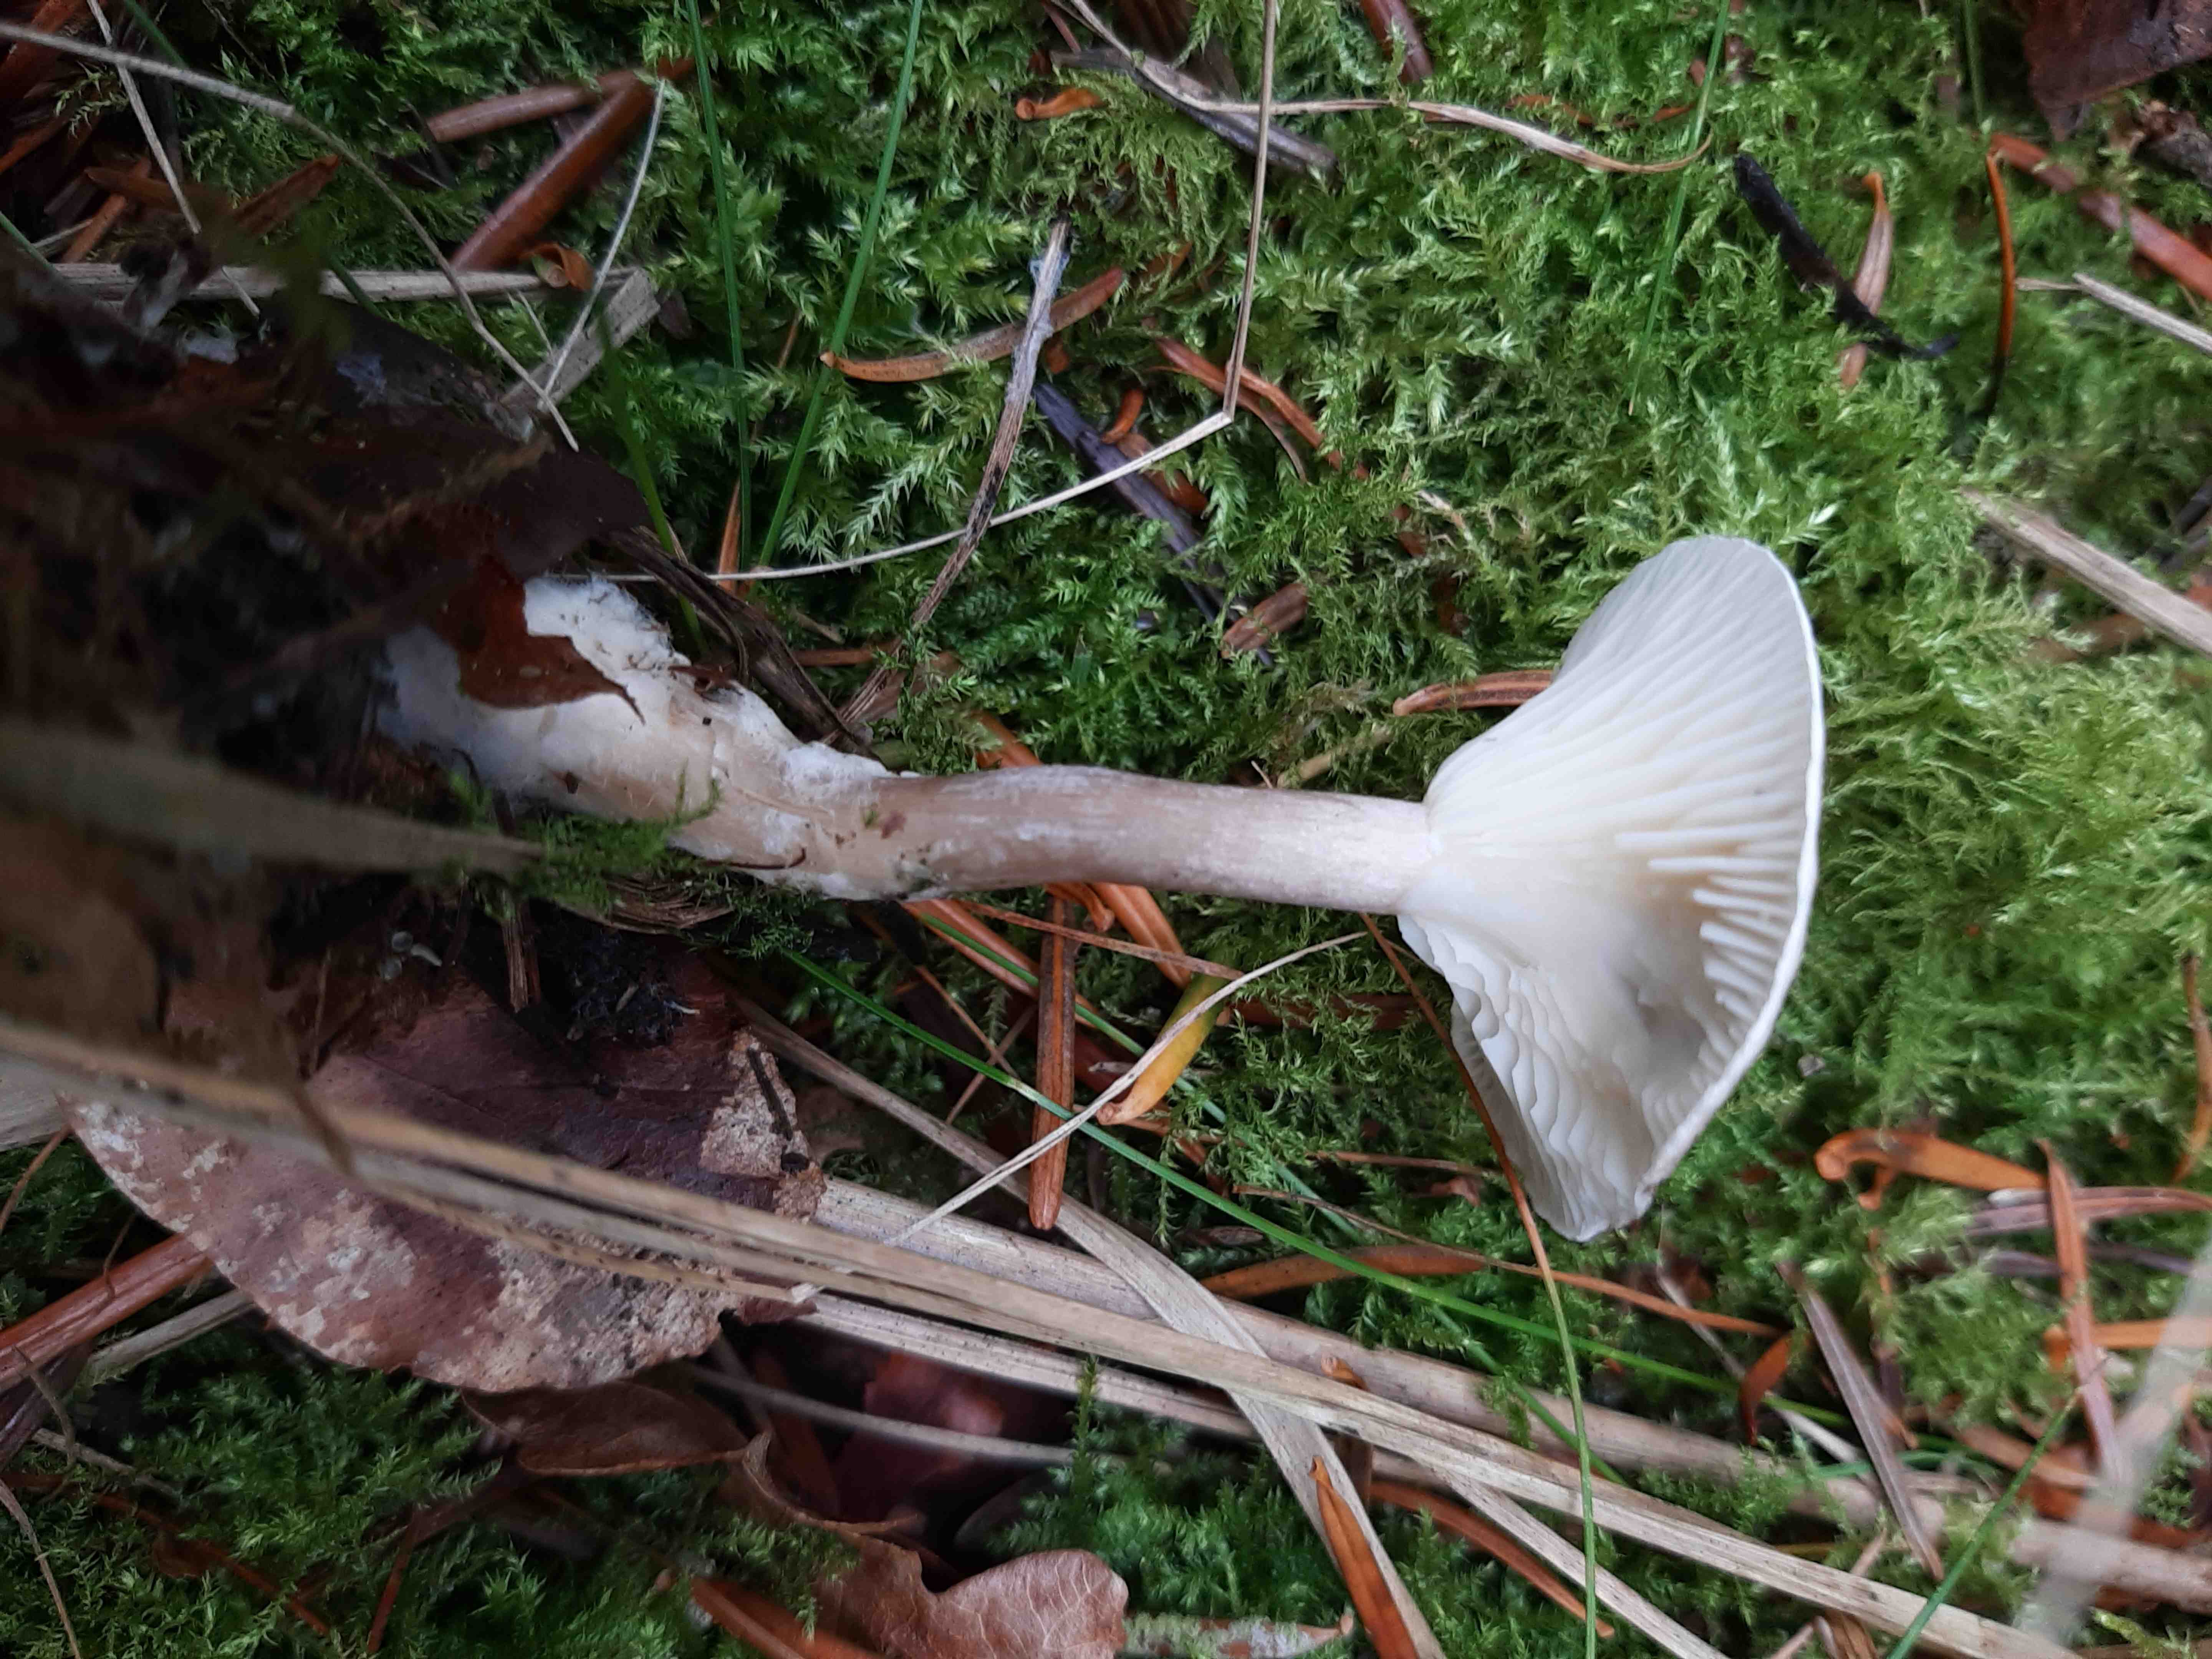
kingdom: Fungi
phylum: Basidiomycota
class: Agaricomycetes
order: Agaricales
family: Hygrophoraceae
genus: Ampulloclitocybe
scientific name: Ampulloclitocybe clavipes
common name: køllefod
